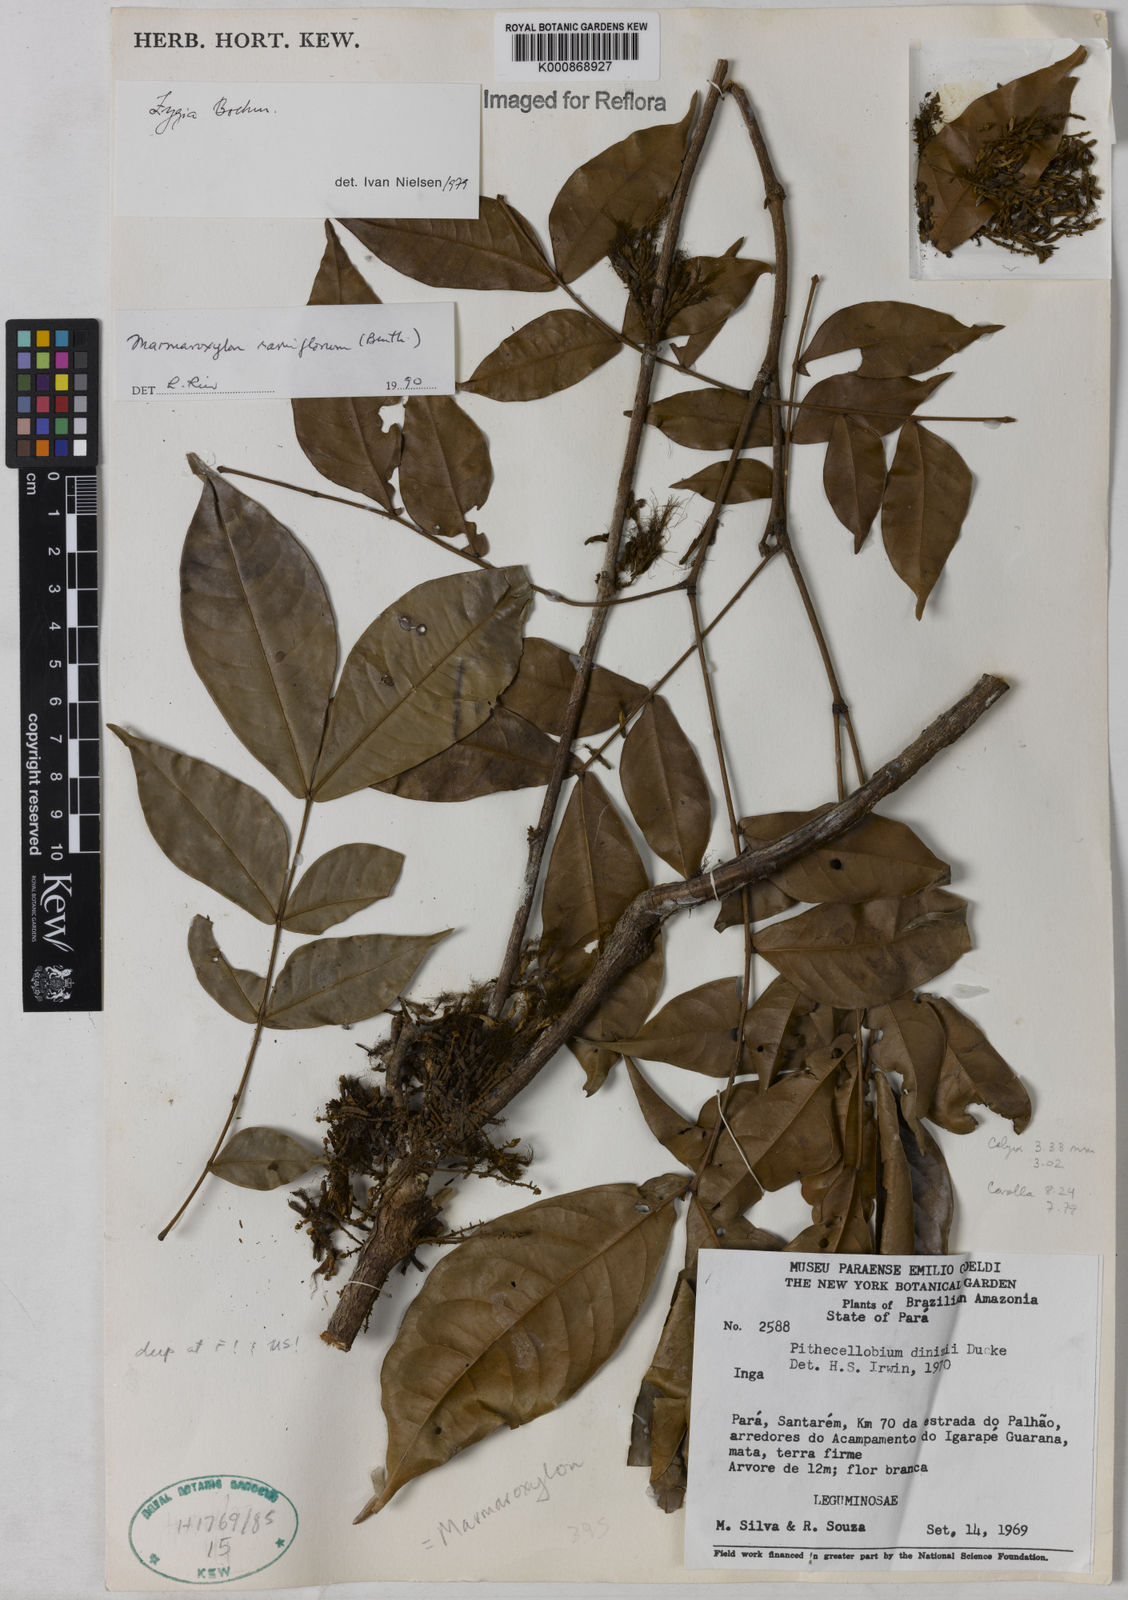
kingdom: Plantae
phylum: Tracheophyta
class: Magnoliopsida
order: Fabales
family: Fabaceae
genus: Zygia
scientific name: Zygia dinizii
